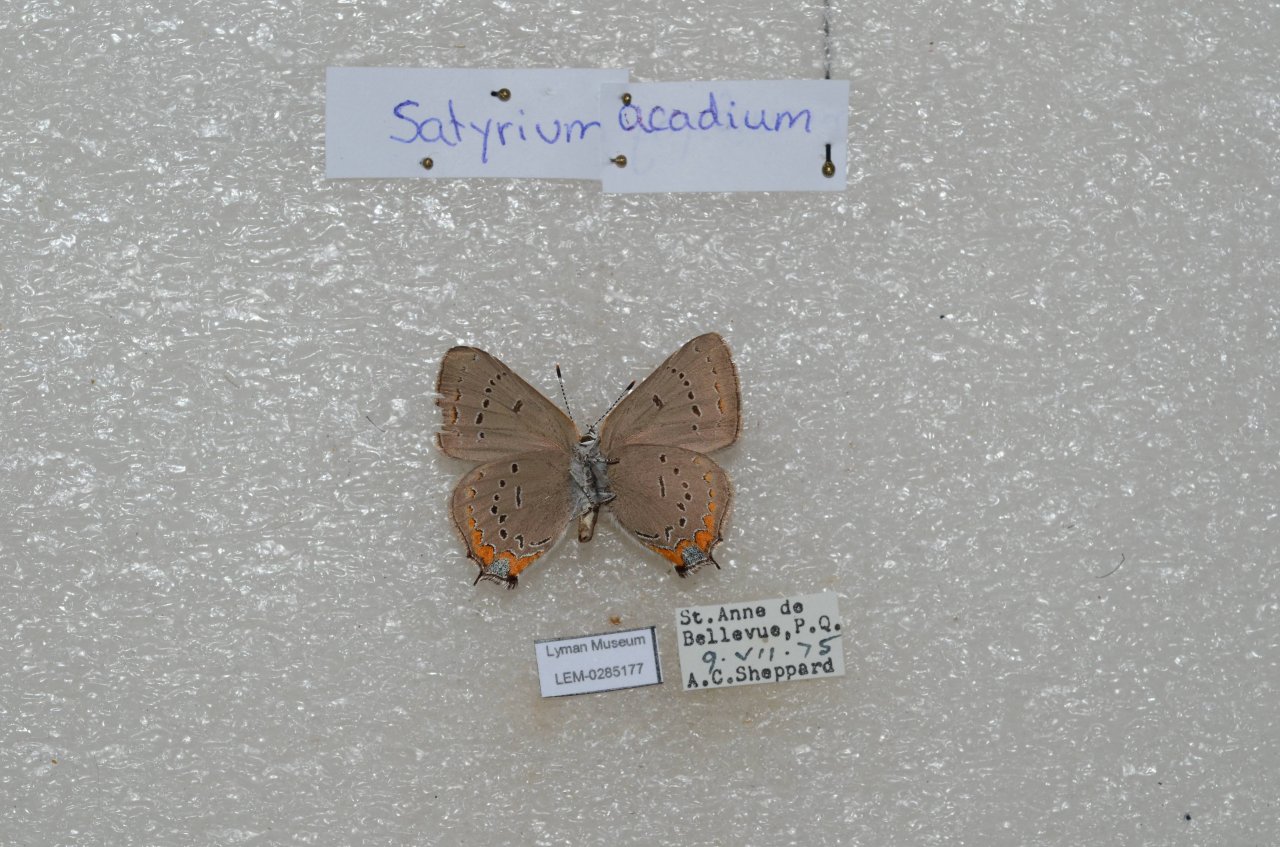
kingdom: Animalia
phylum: Arthropoda
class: Insecta
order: Lepidoptera
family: Lycaenidae
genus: Strymon
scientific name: Strymon acadica
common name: Acadian Hairstreak
